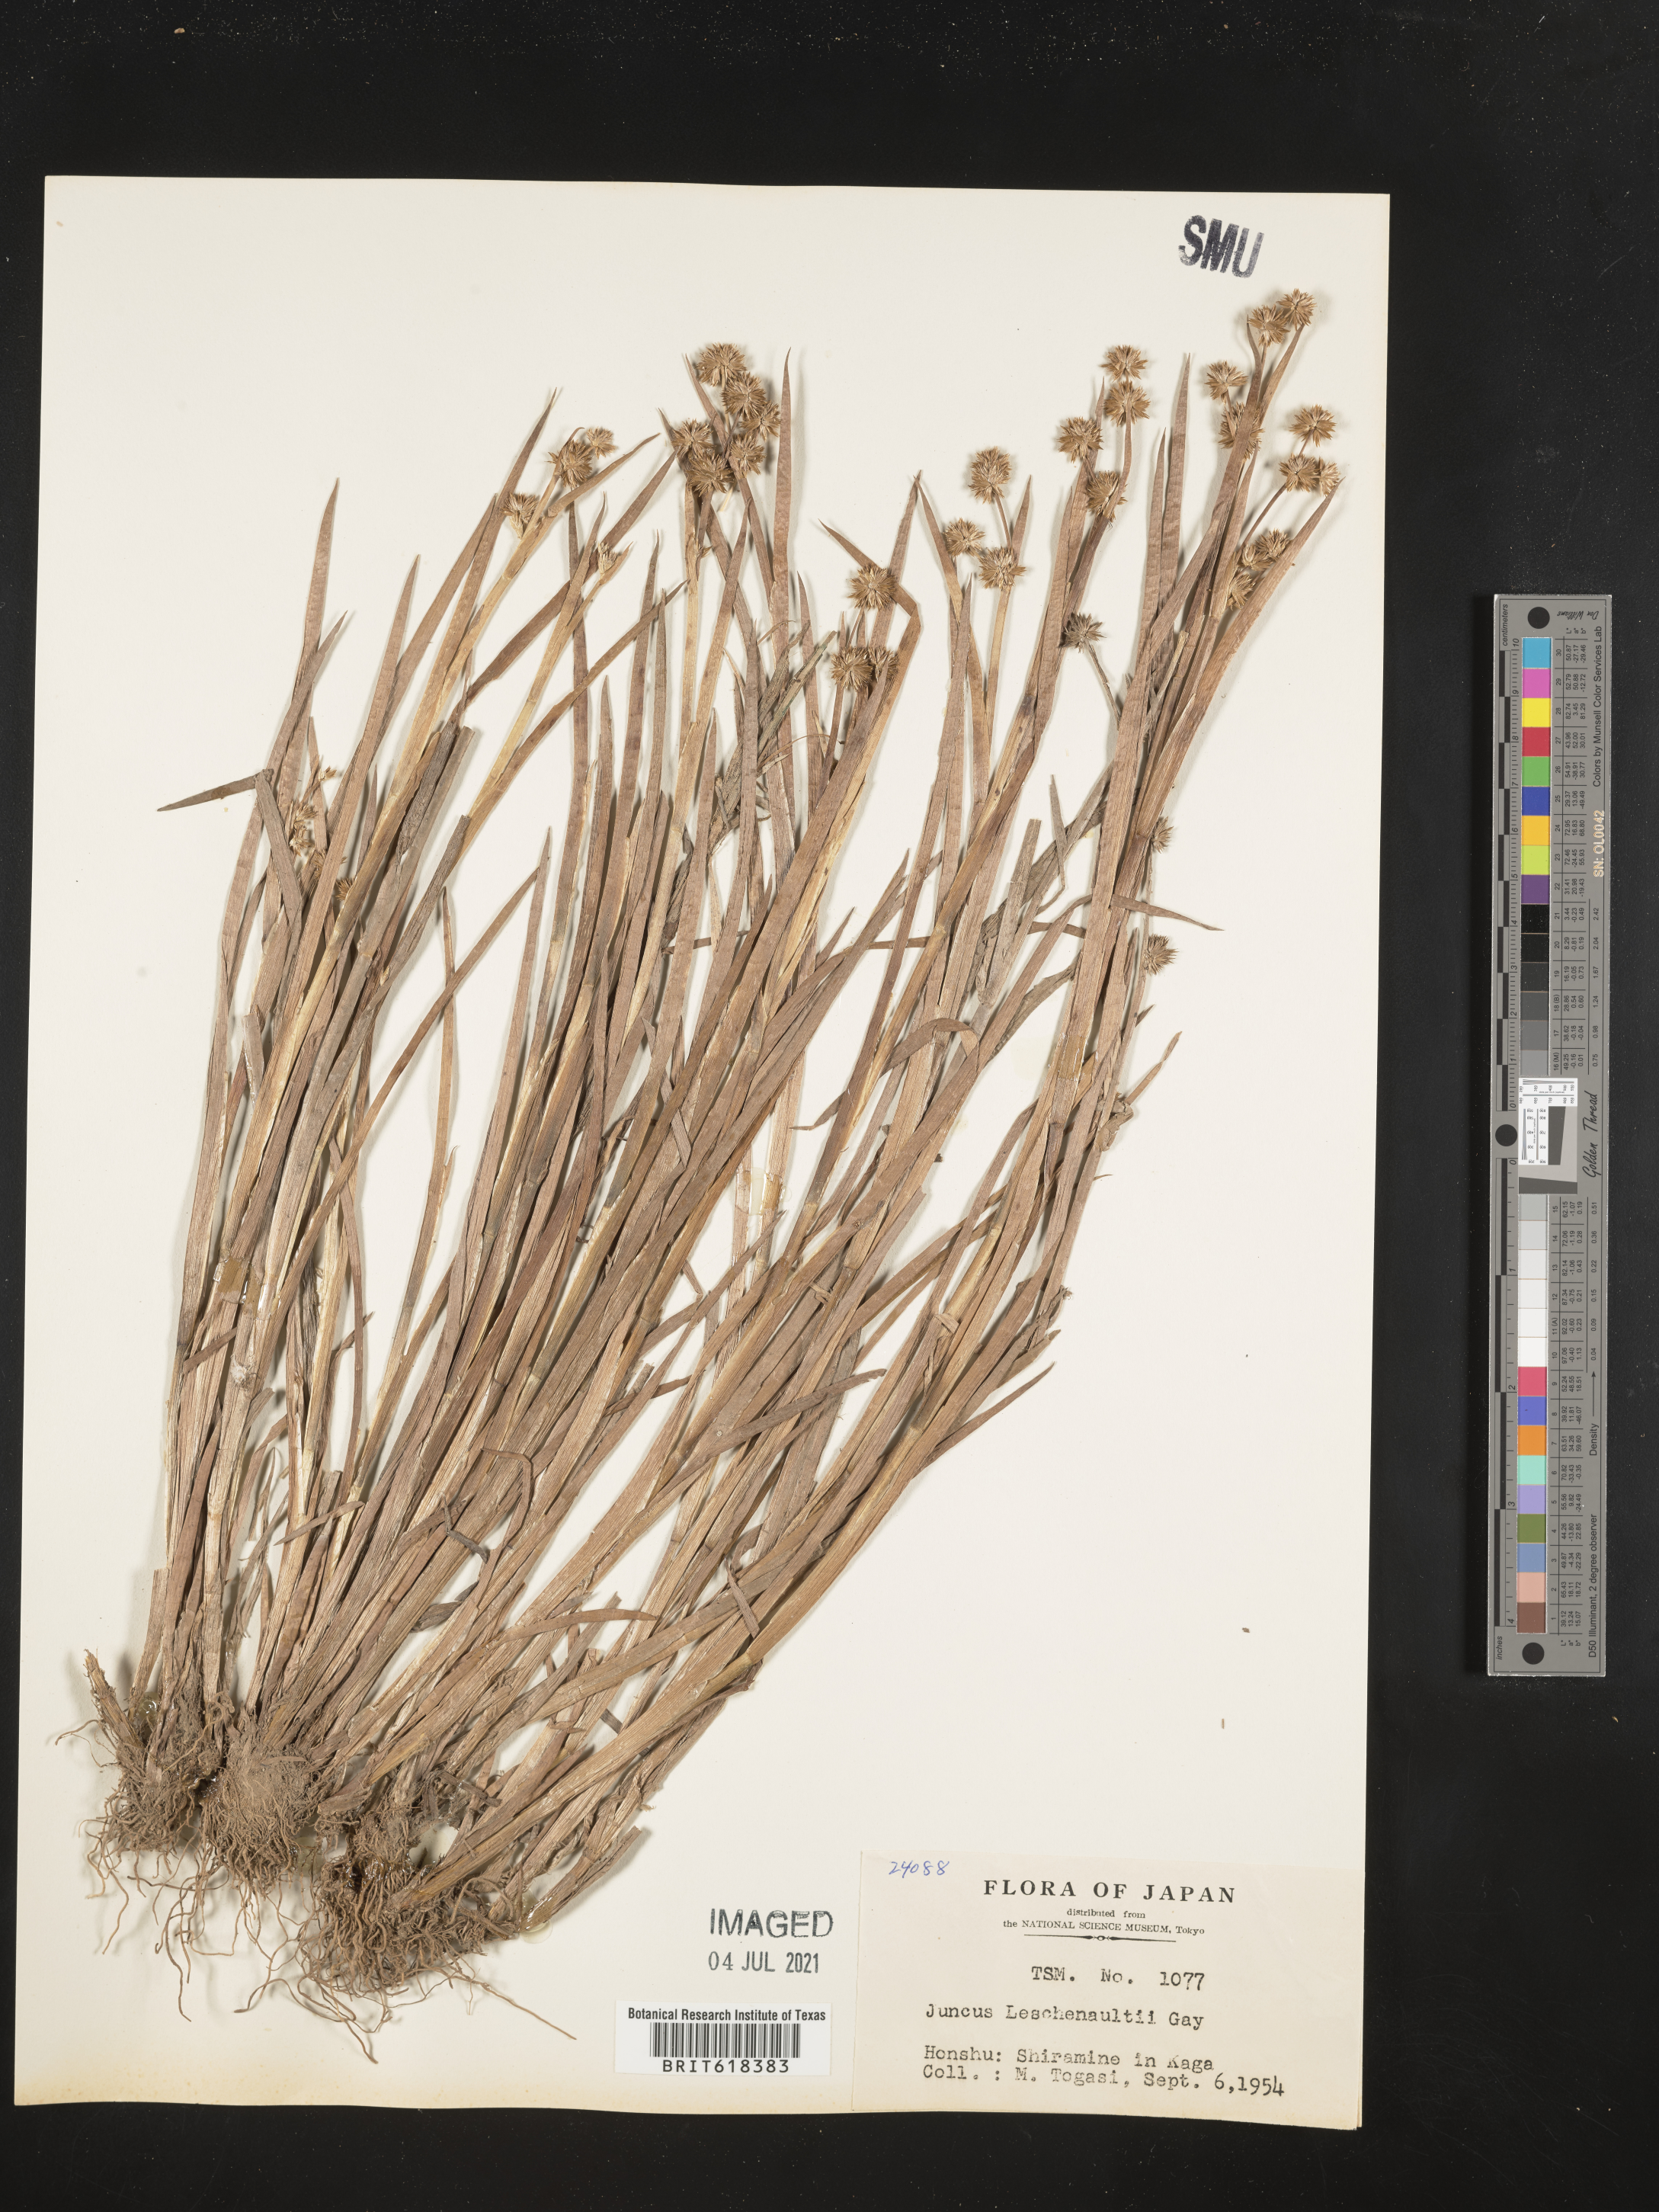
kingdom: Plantae
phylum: Tracheophyta
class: Liliopsida
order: Poales
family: Juncaceae
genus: Juncus
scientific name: Juncus prismatocarpus
